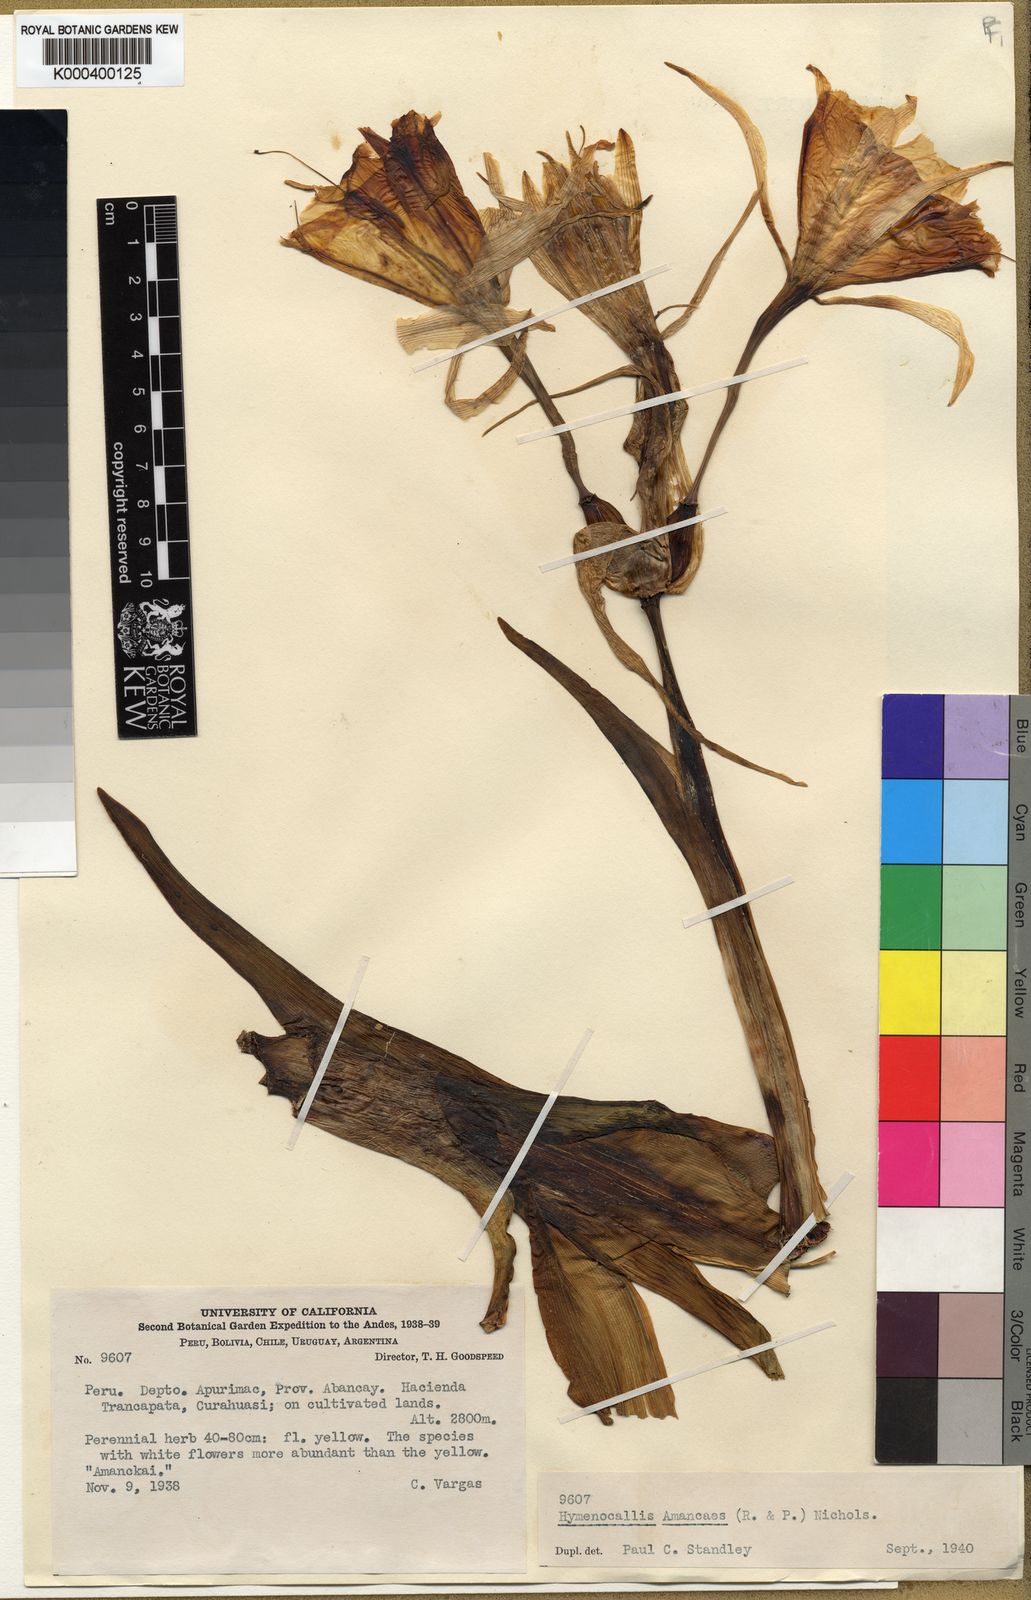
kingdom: Plantae
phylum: Tracheophyta
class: Liliopsida
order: Asparagales
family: Amaryllidaceae
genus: Ismene
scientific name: Ismene amancaes
